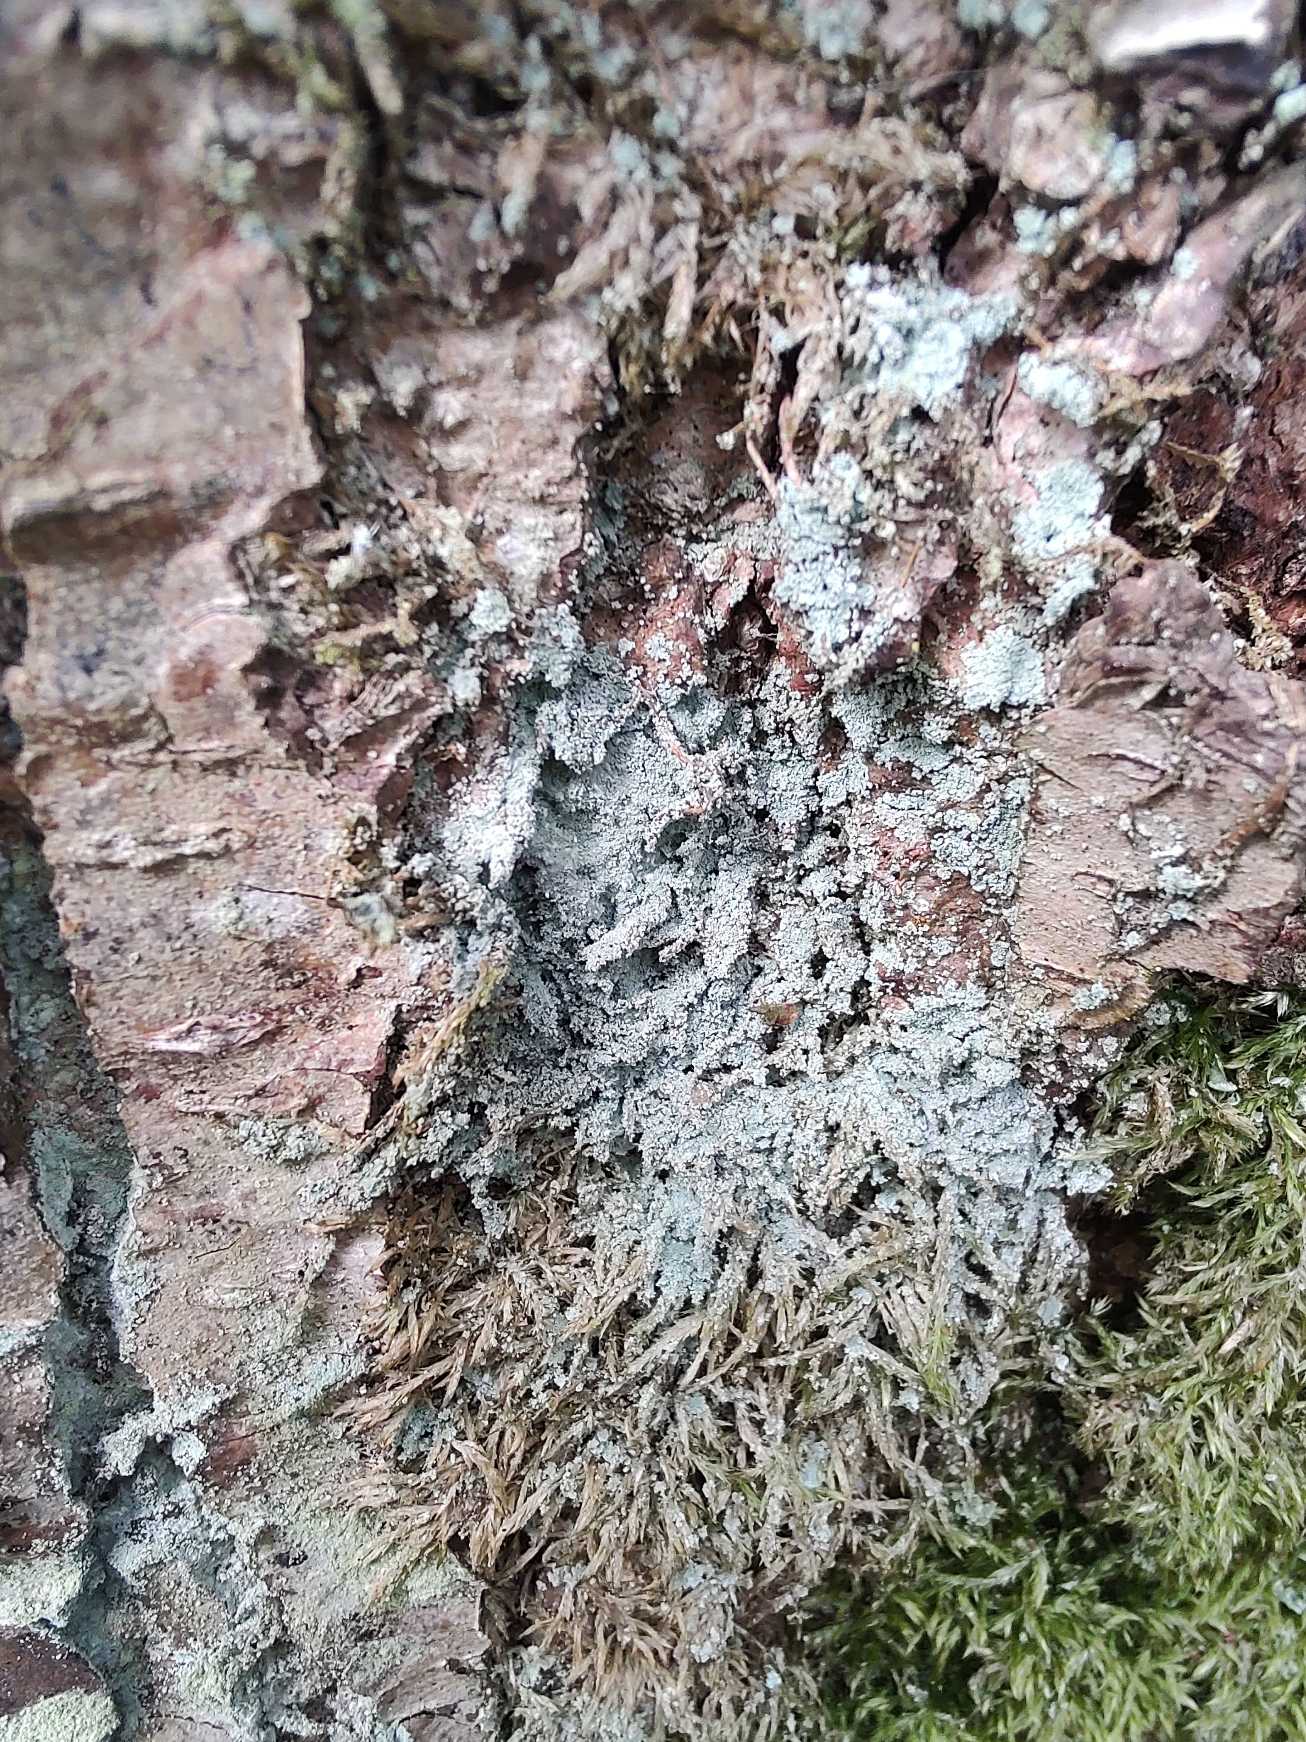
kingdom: Fungi
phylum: Ascomycota
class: Lecanoromycetes
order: Lecanorales
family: Stereocaulaceae
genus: Lepraria
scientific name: Lepraria
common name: Støvlav
